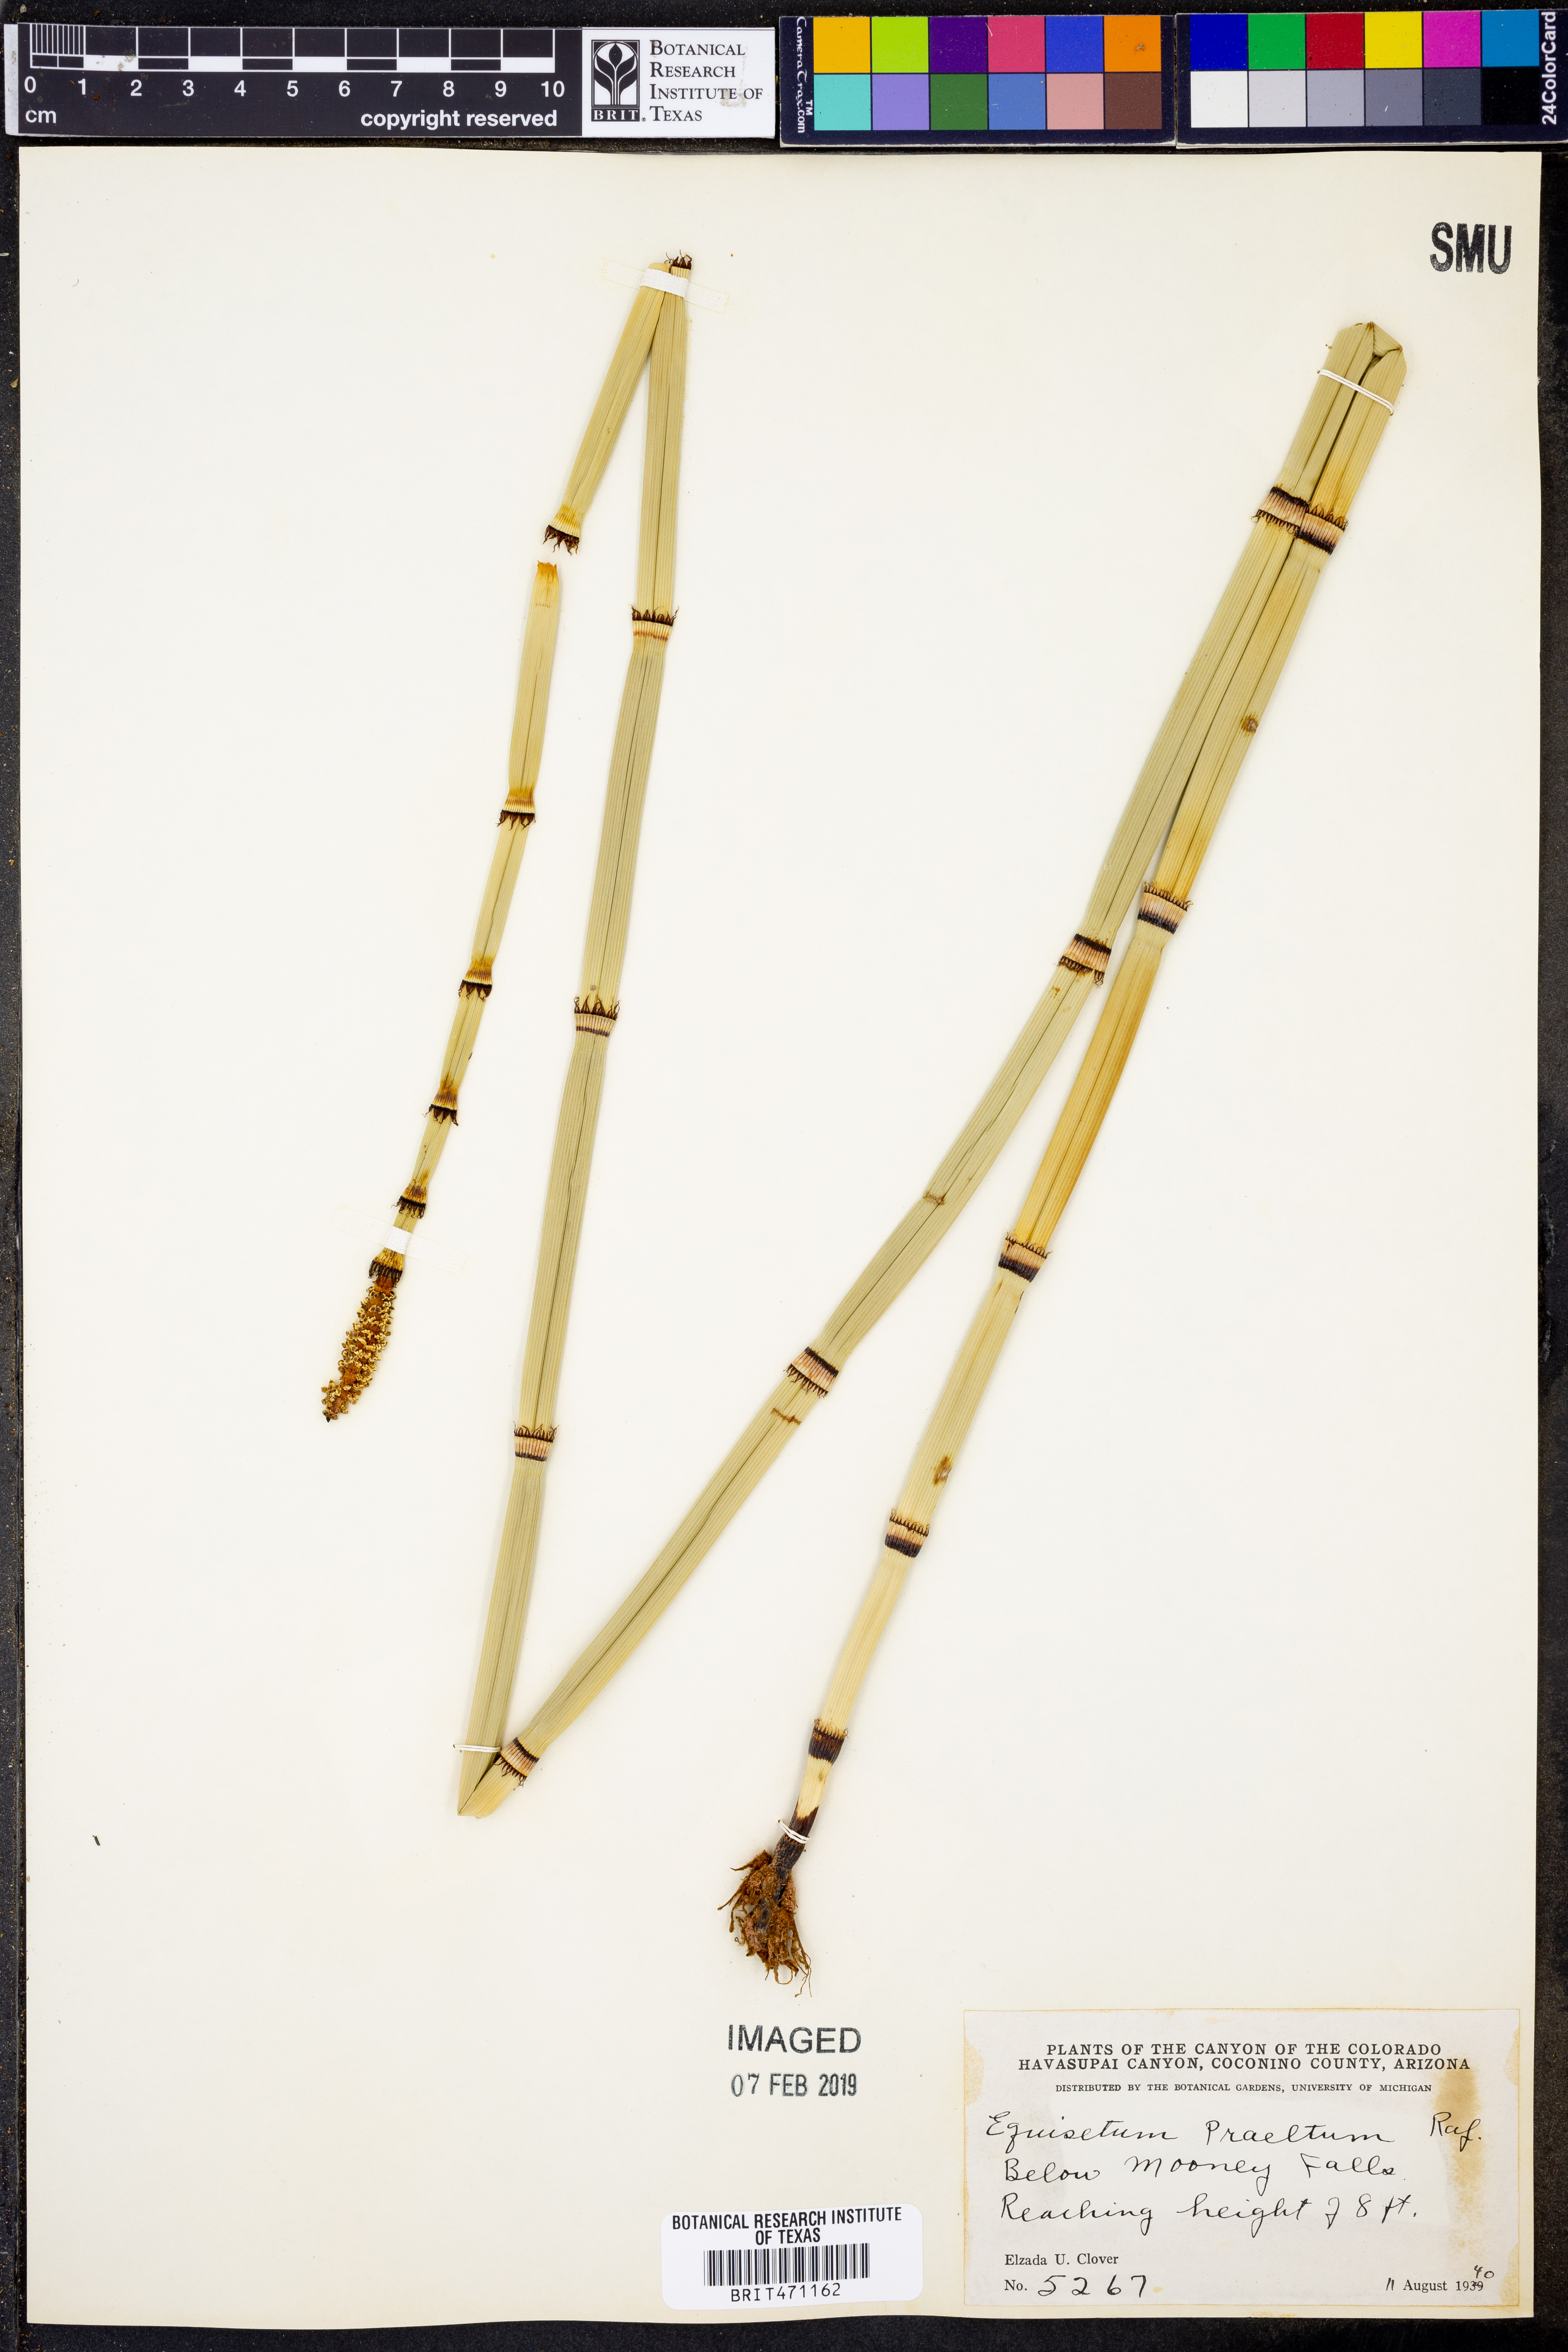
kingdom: Plantae
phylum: Tracheophyta
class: Polypodiopsida
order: Equisetales
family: Equisetaceae
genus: Equisetum
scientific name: Equisetum praealtum
